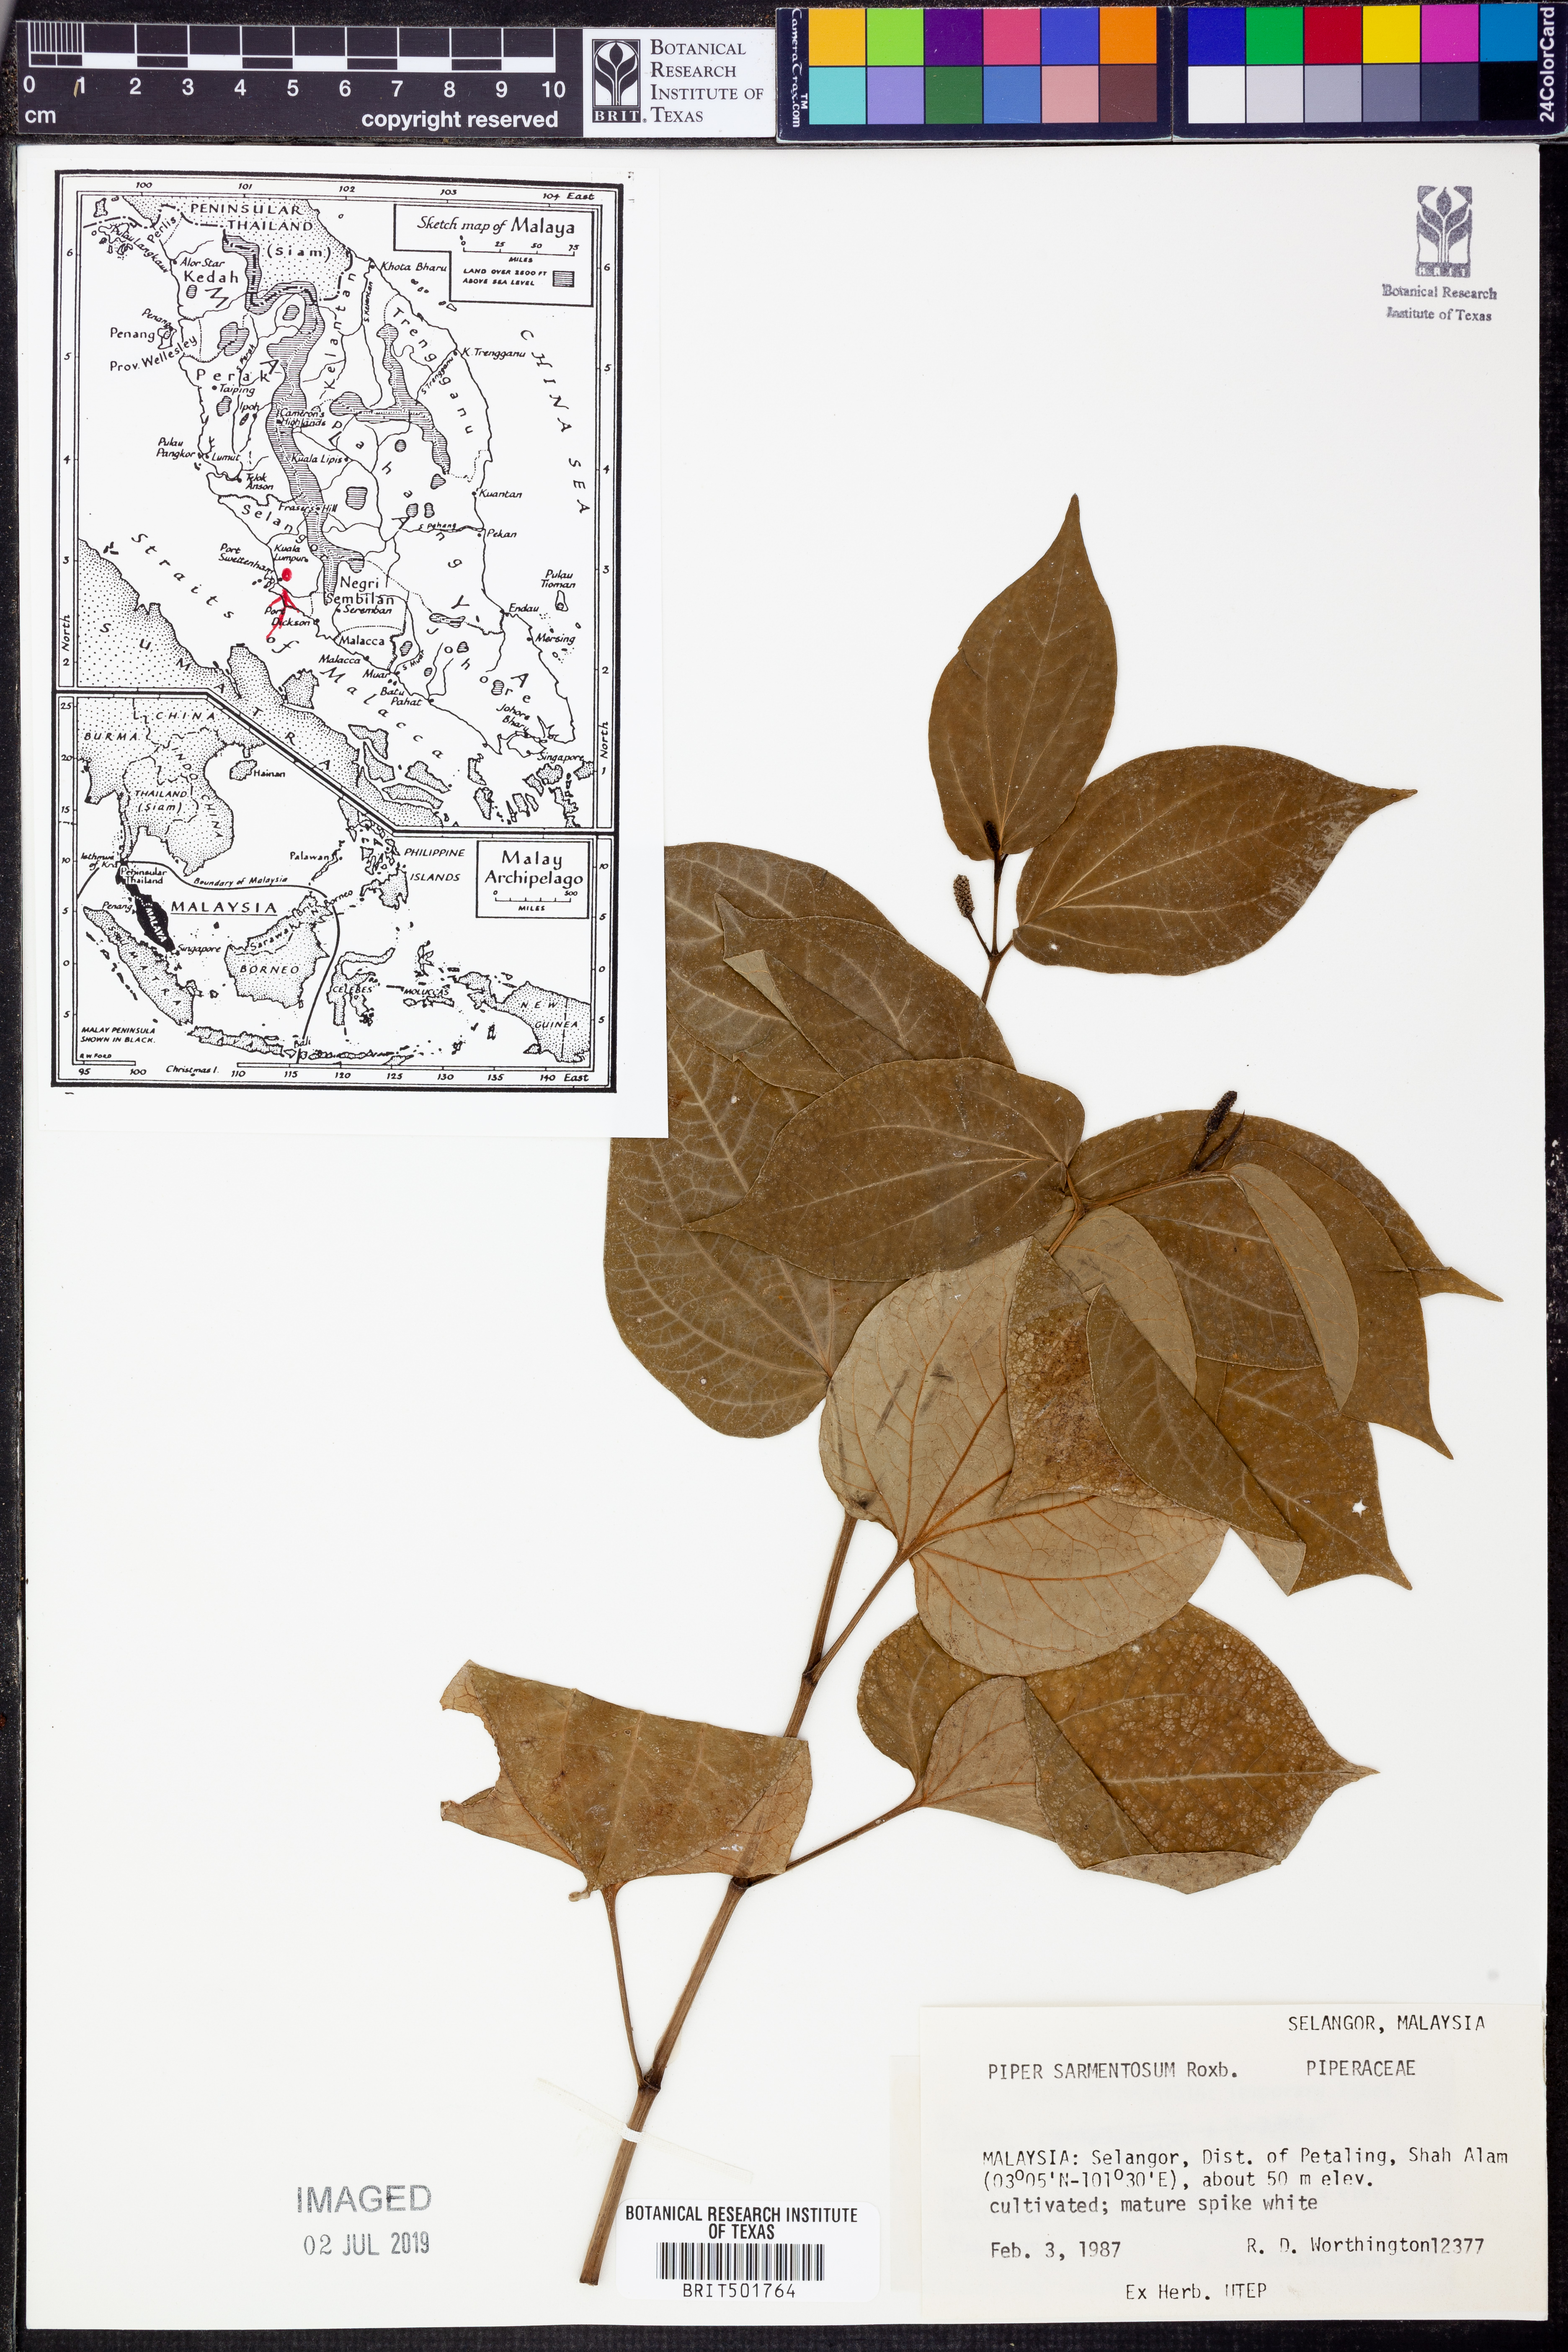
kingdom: Plantae
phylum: Tracheophyta
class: Magnoliopsida
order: Piperales
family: Piperaceae
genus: Piper
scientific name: Piper sarmentosum
